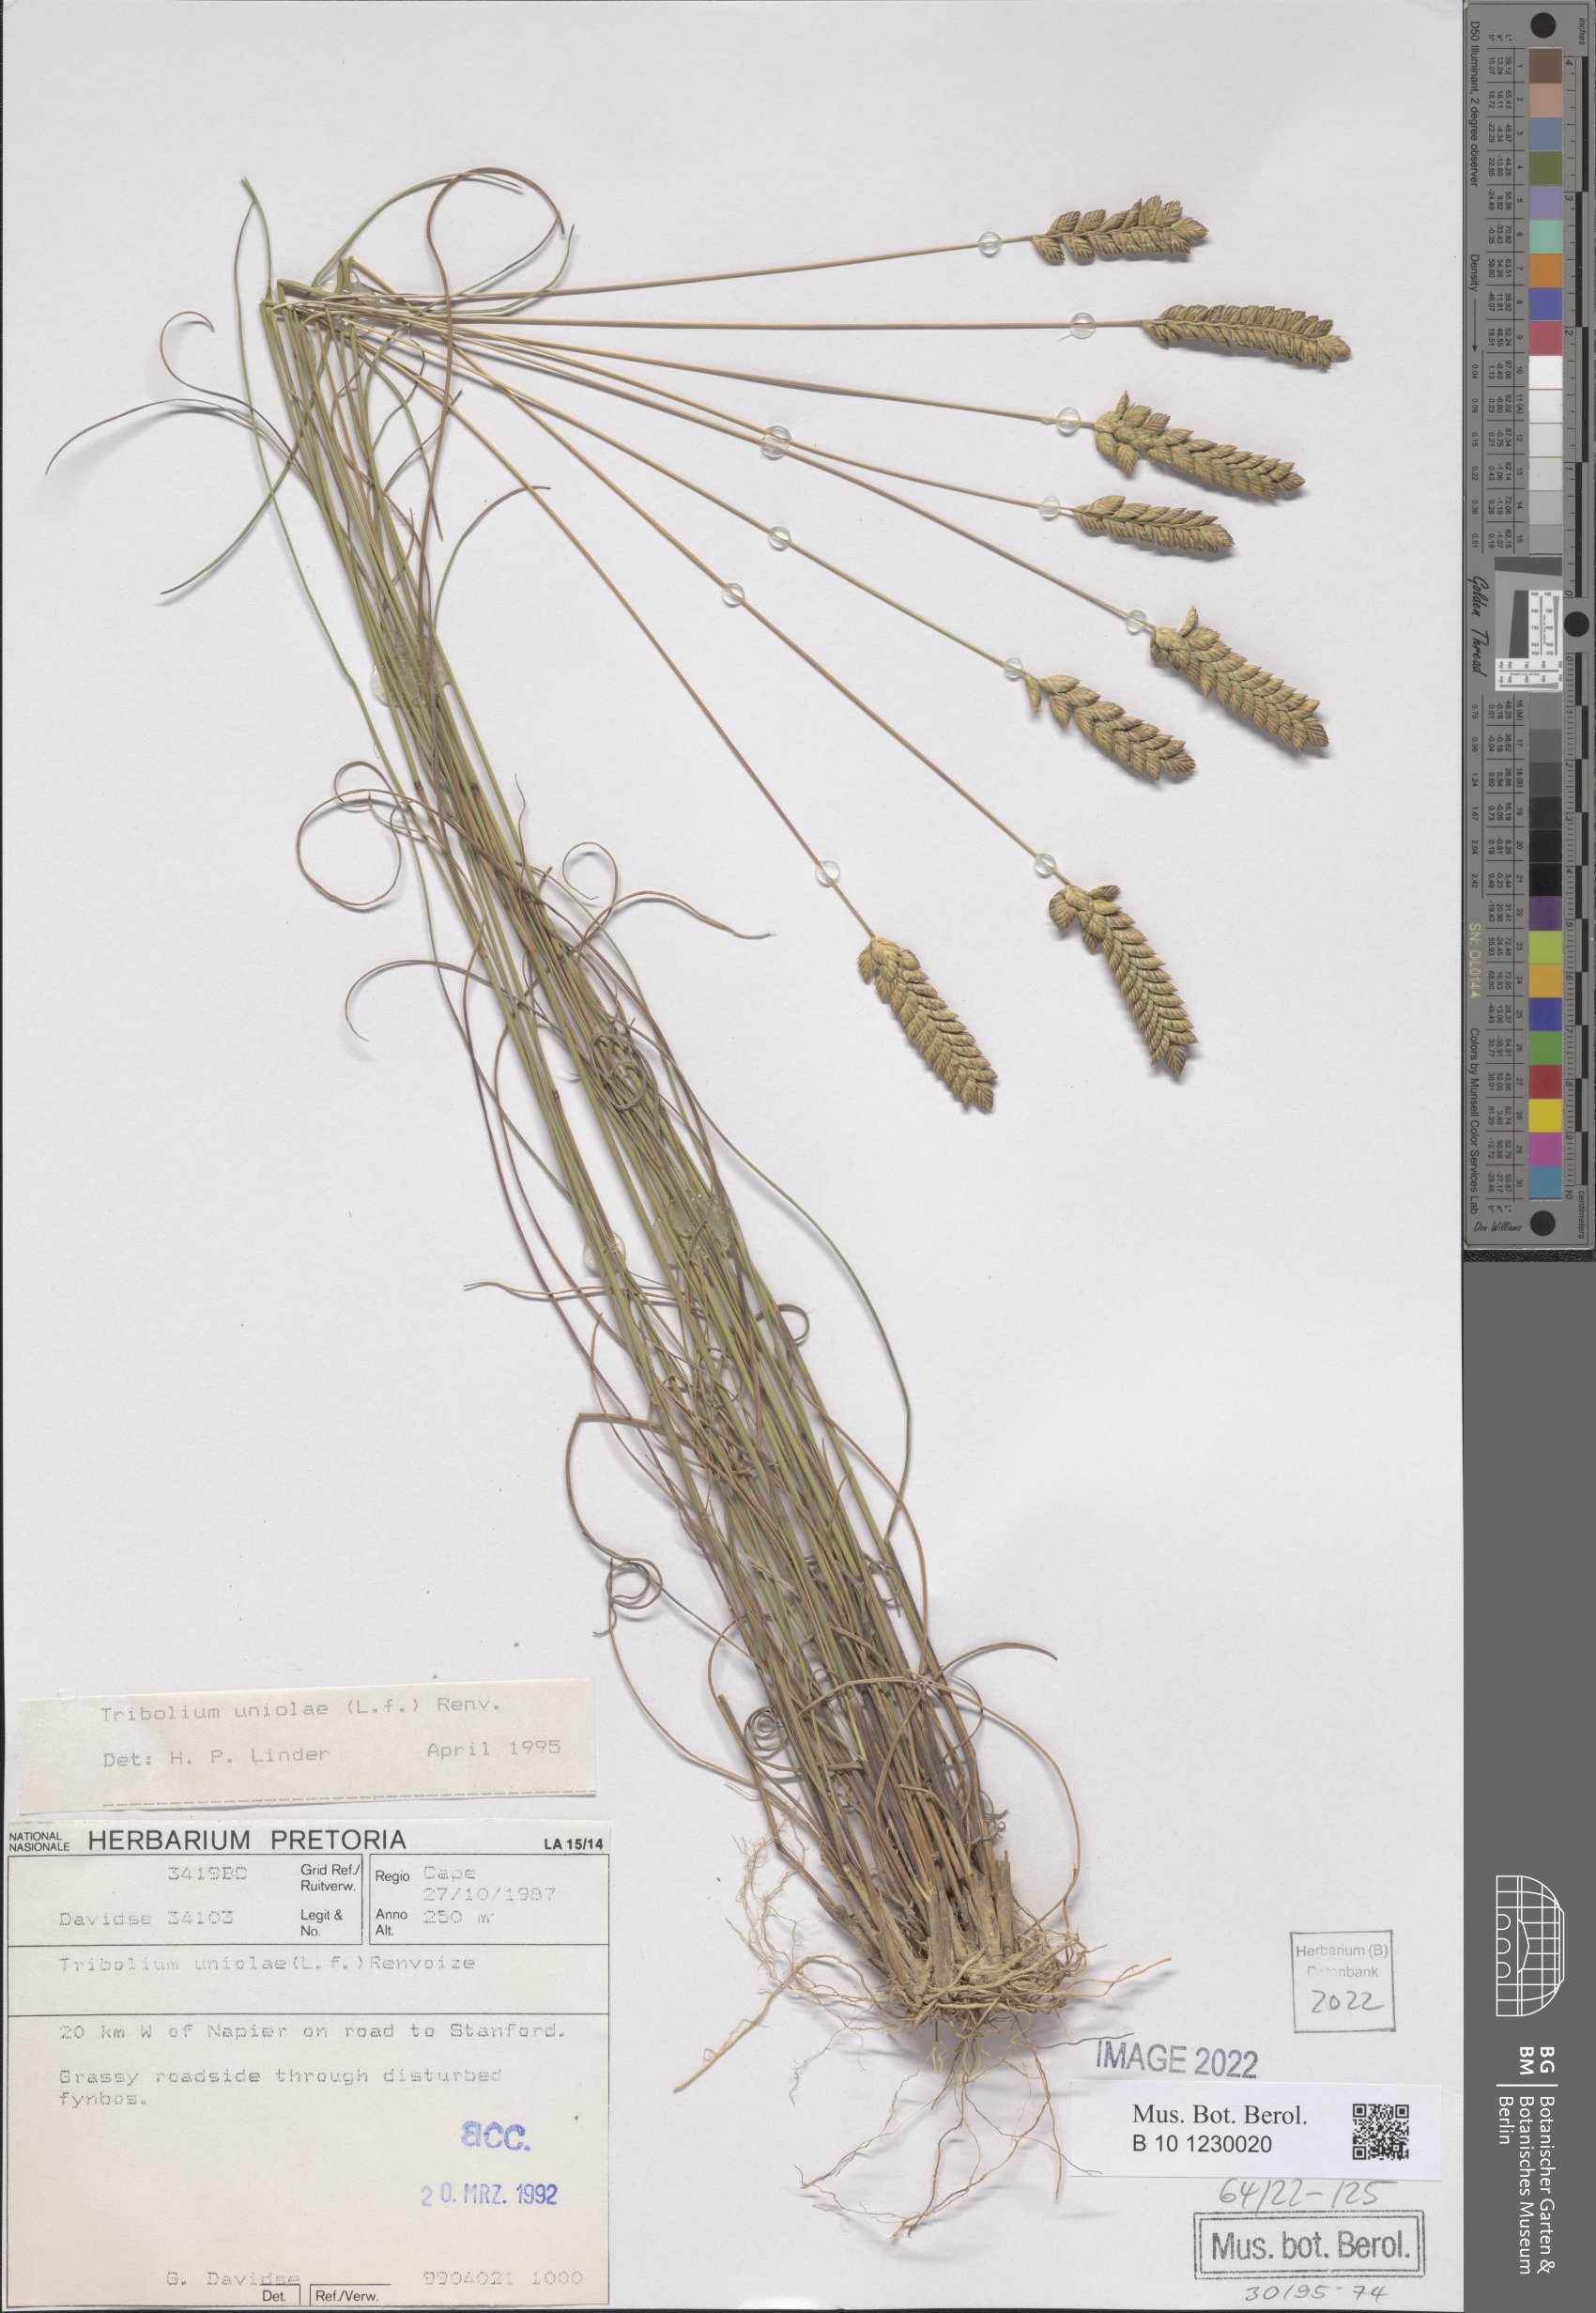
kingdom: Plantae
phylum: Tracheophyta
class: Liliopsida
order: Poales
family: Poaceae
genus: Tribolium
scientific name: Tribolium uniolae
